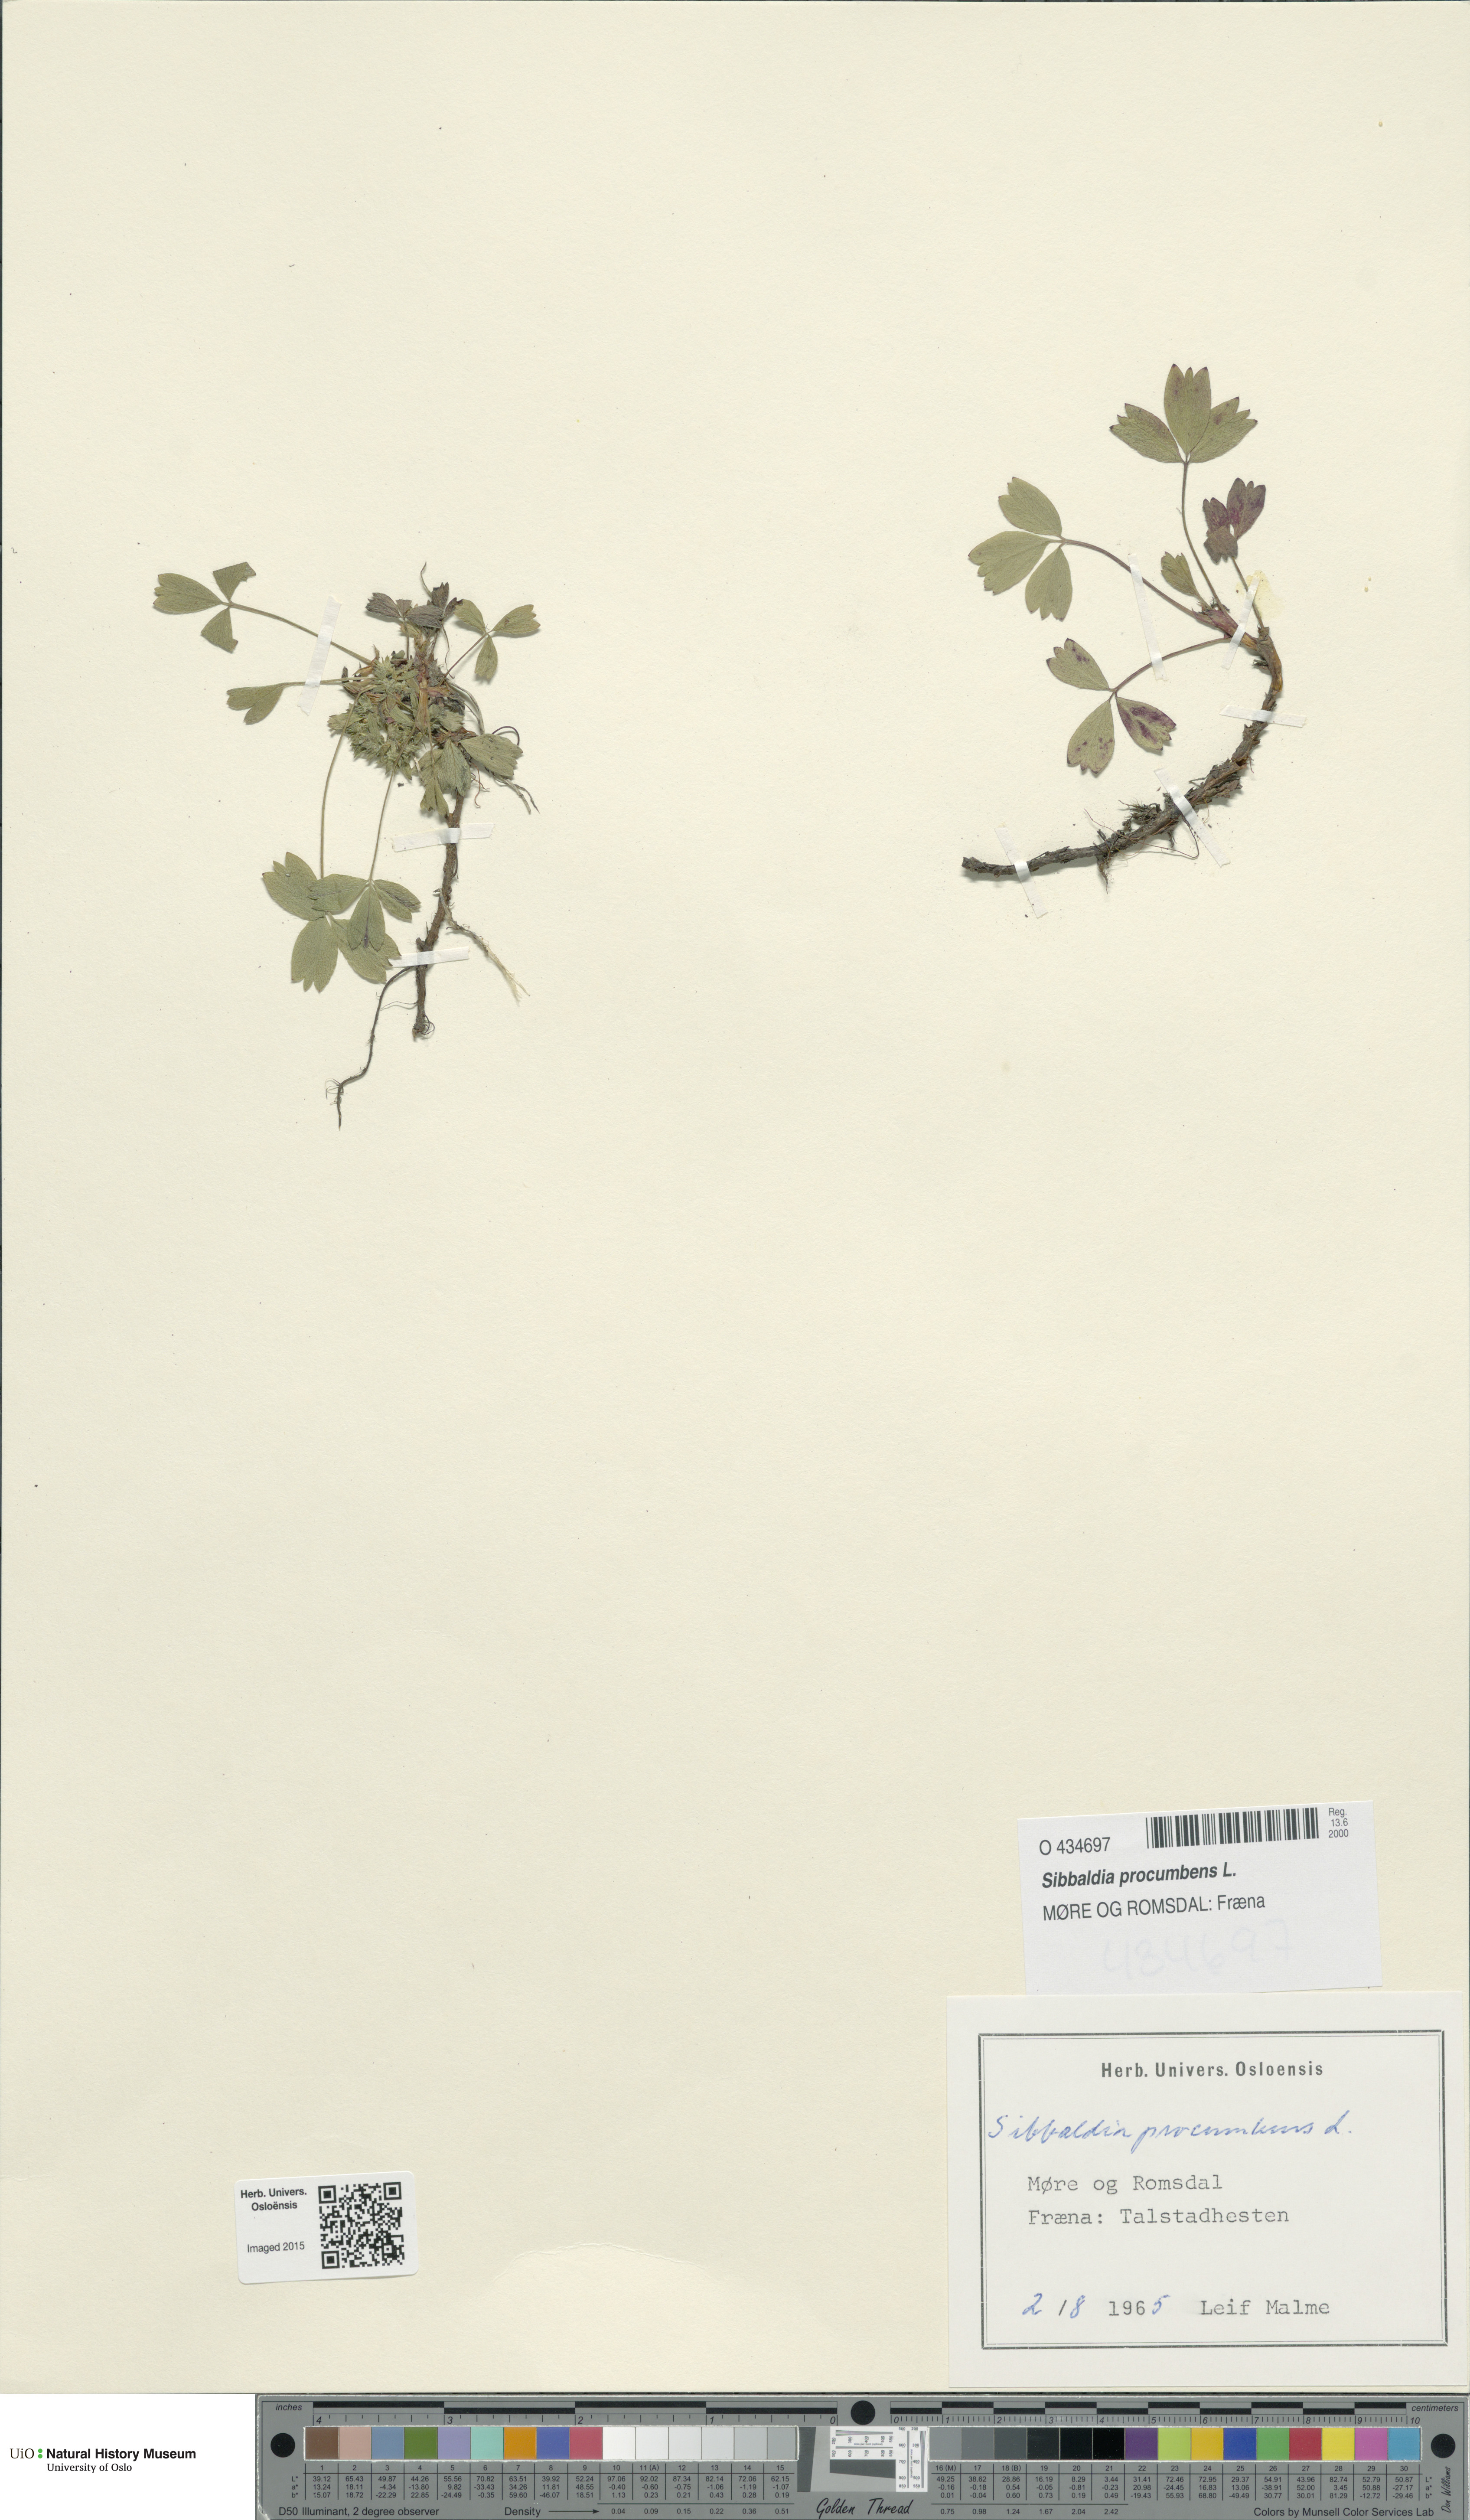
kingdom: Plantae
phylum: Tracheophyta
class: Magnoliopsida
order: Rosales
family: Rosaceae
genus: Sibbaldia
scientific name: Sibbaldia procumbens
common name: Creeping sibbaldia
